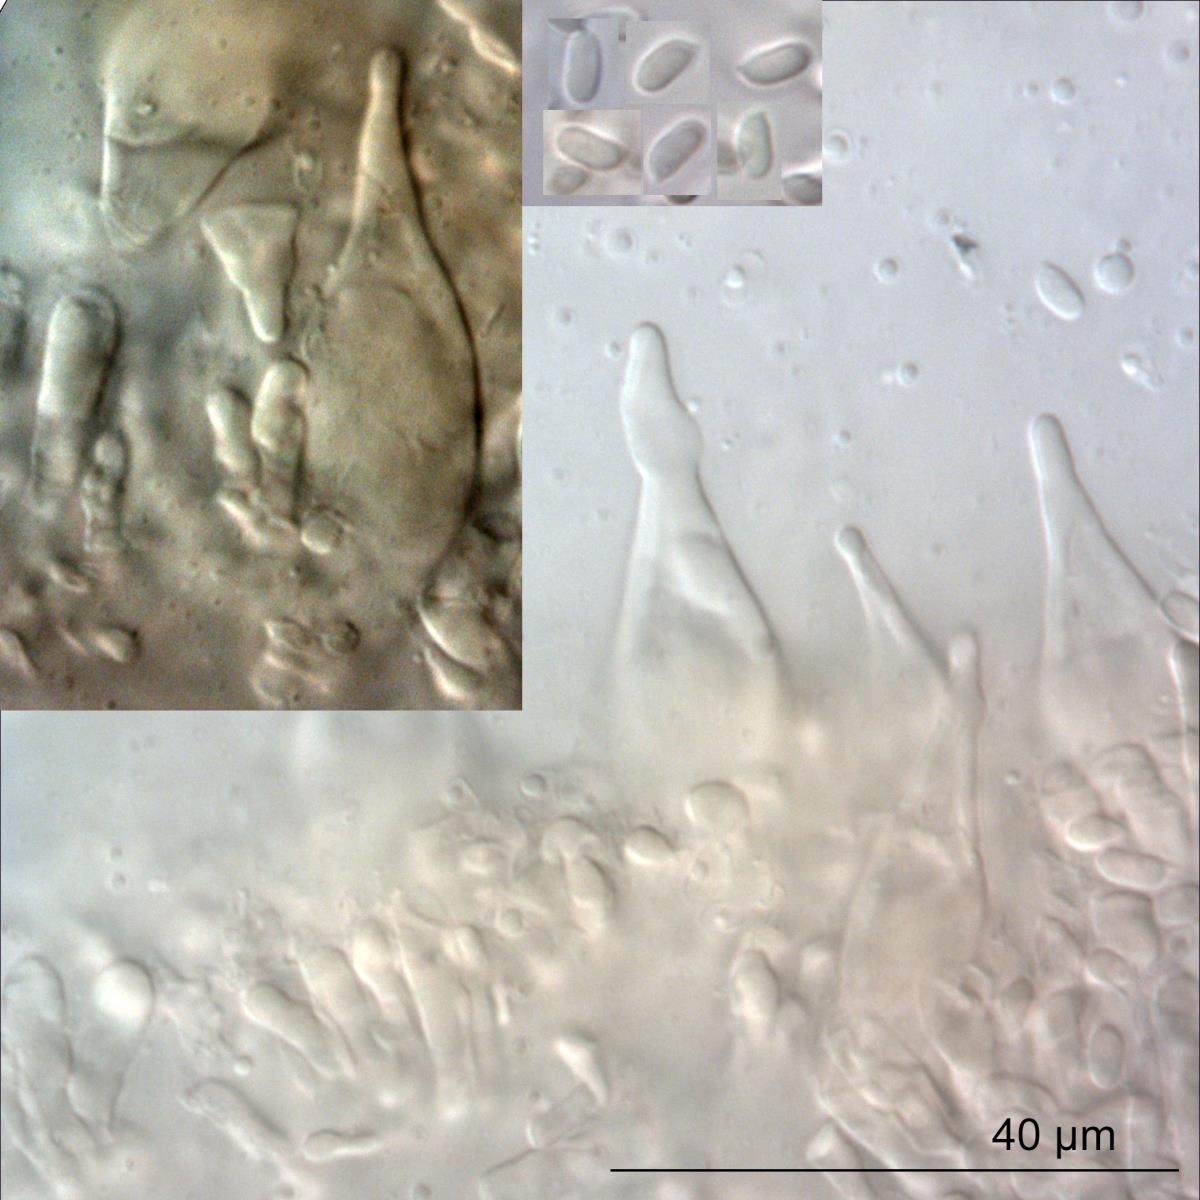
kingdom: Fungi
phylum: Basidiomycota
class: Agaricomycetes
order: Polyporales
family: Panaceae
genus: Panus
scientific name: Panus purpuratus
